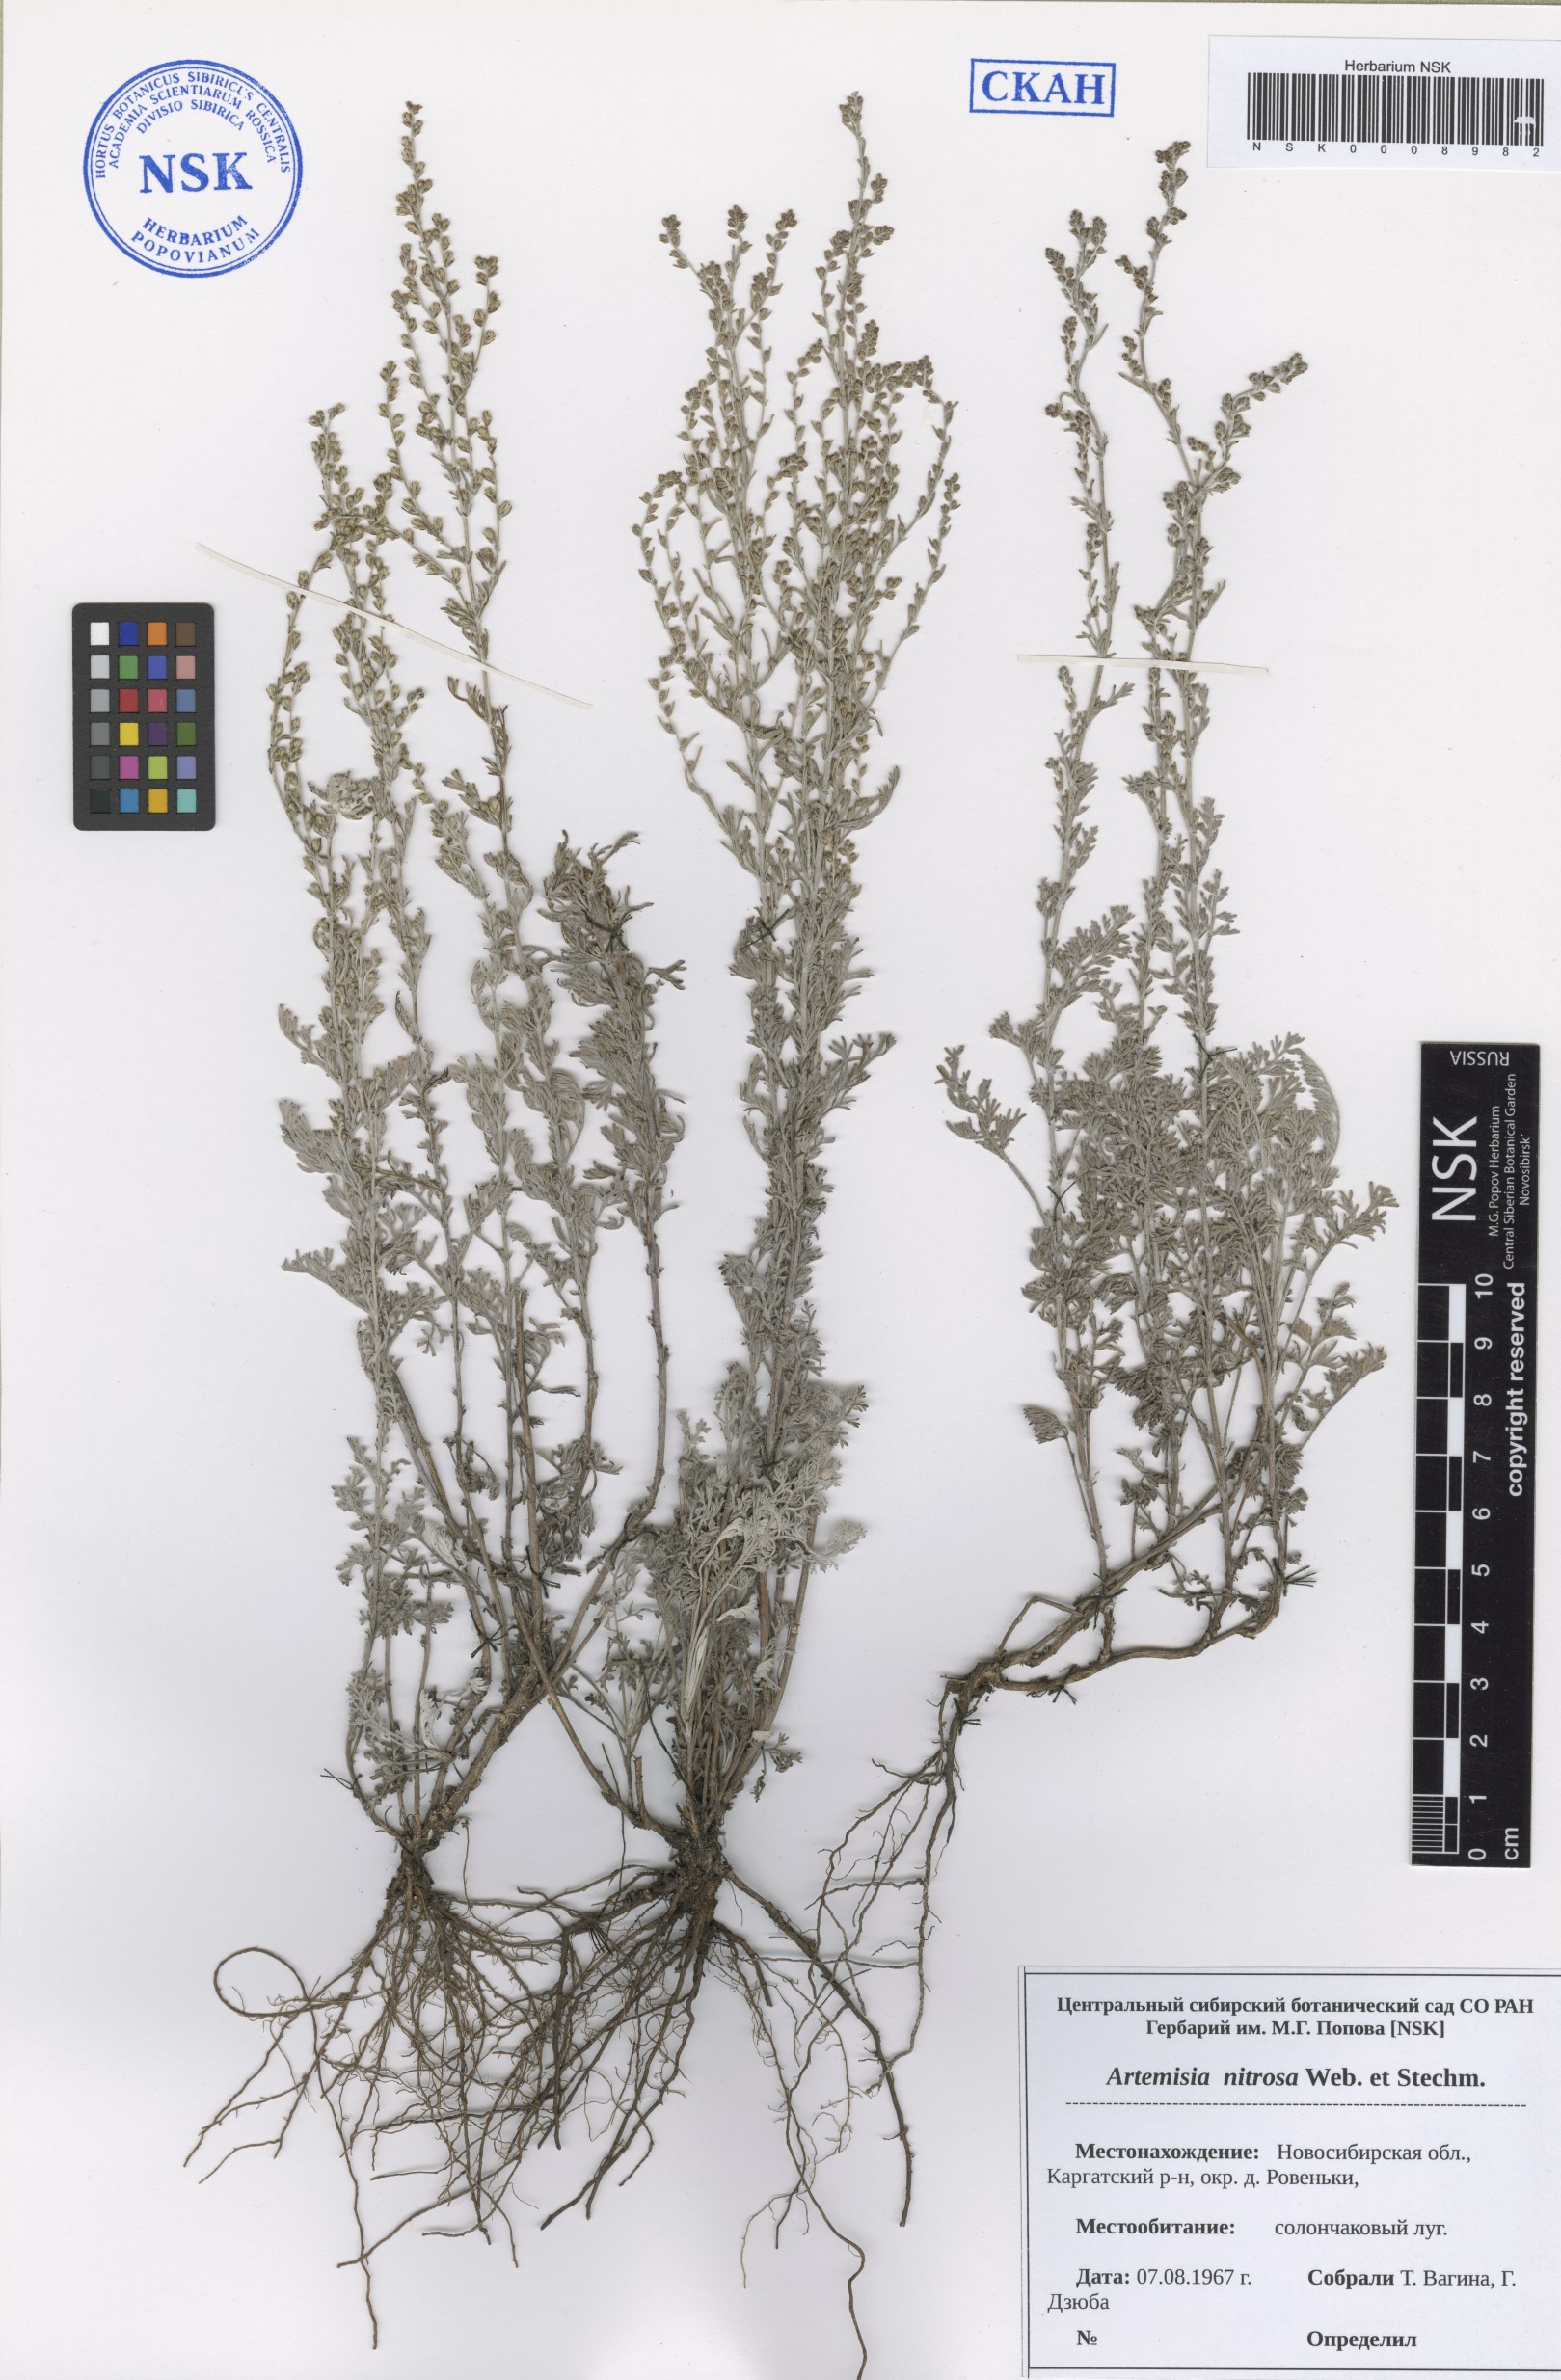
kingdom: Plantae
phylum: Tracheophyta
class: Magnoliopsida
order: Asterales
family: Asteraceae
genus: Artemisia
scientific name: Artemisia nitrosa
